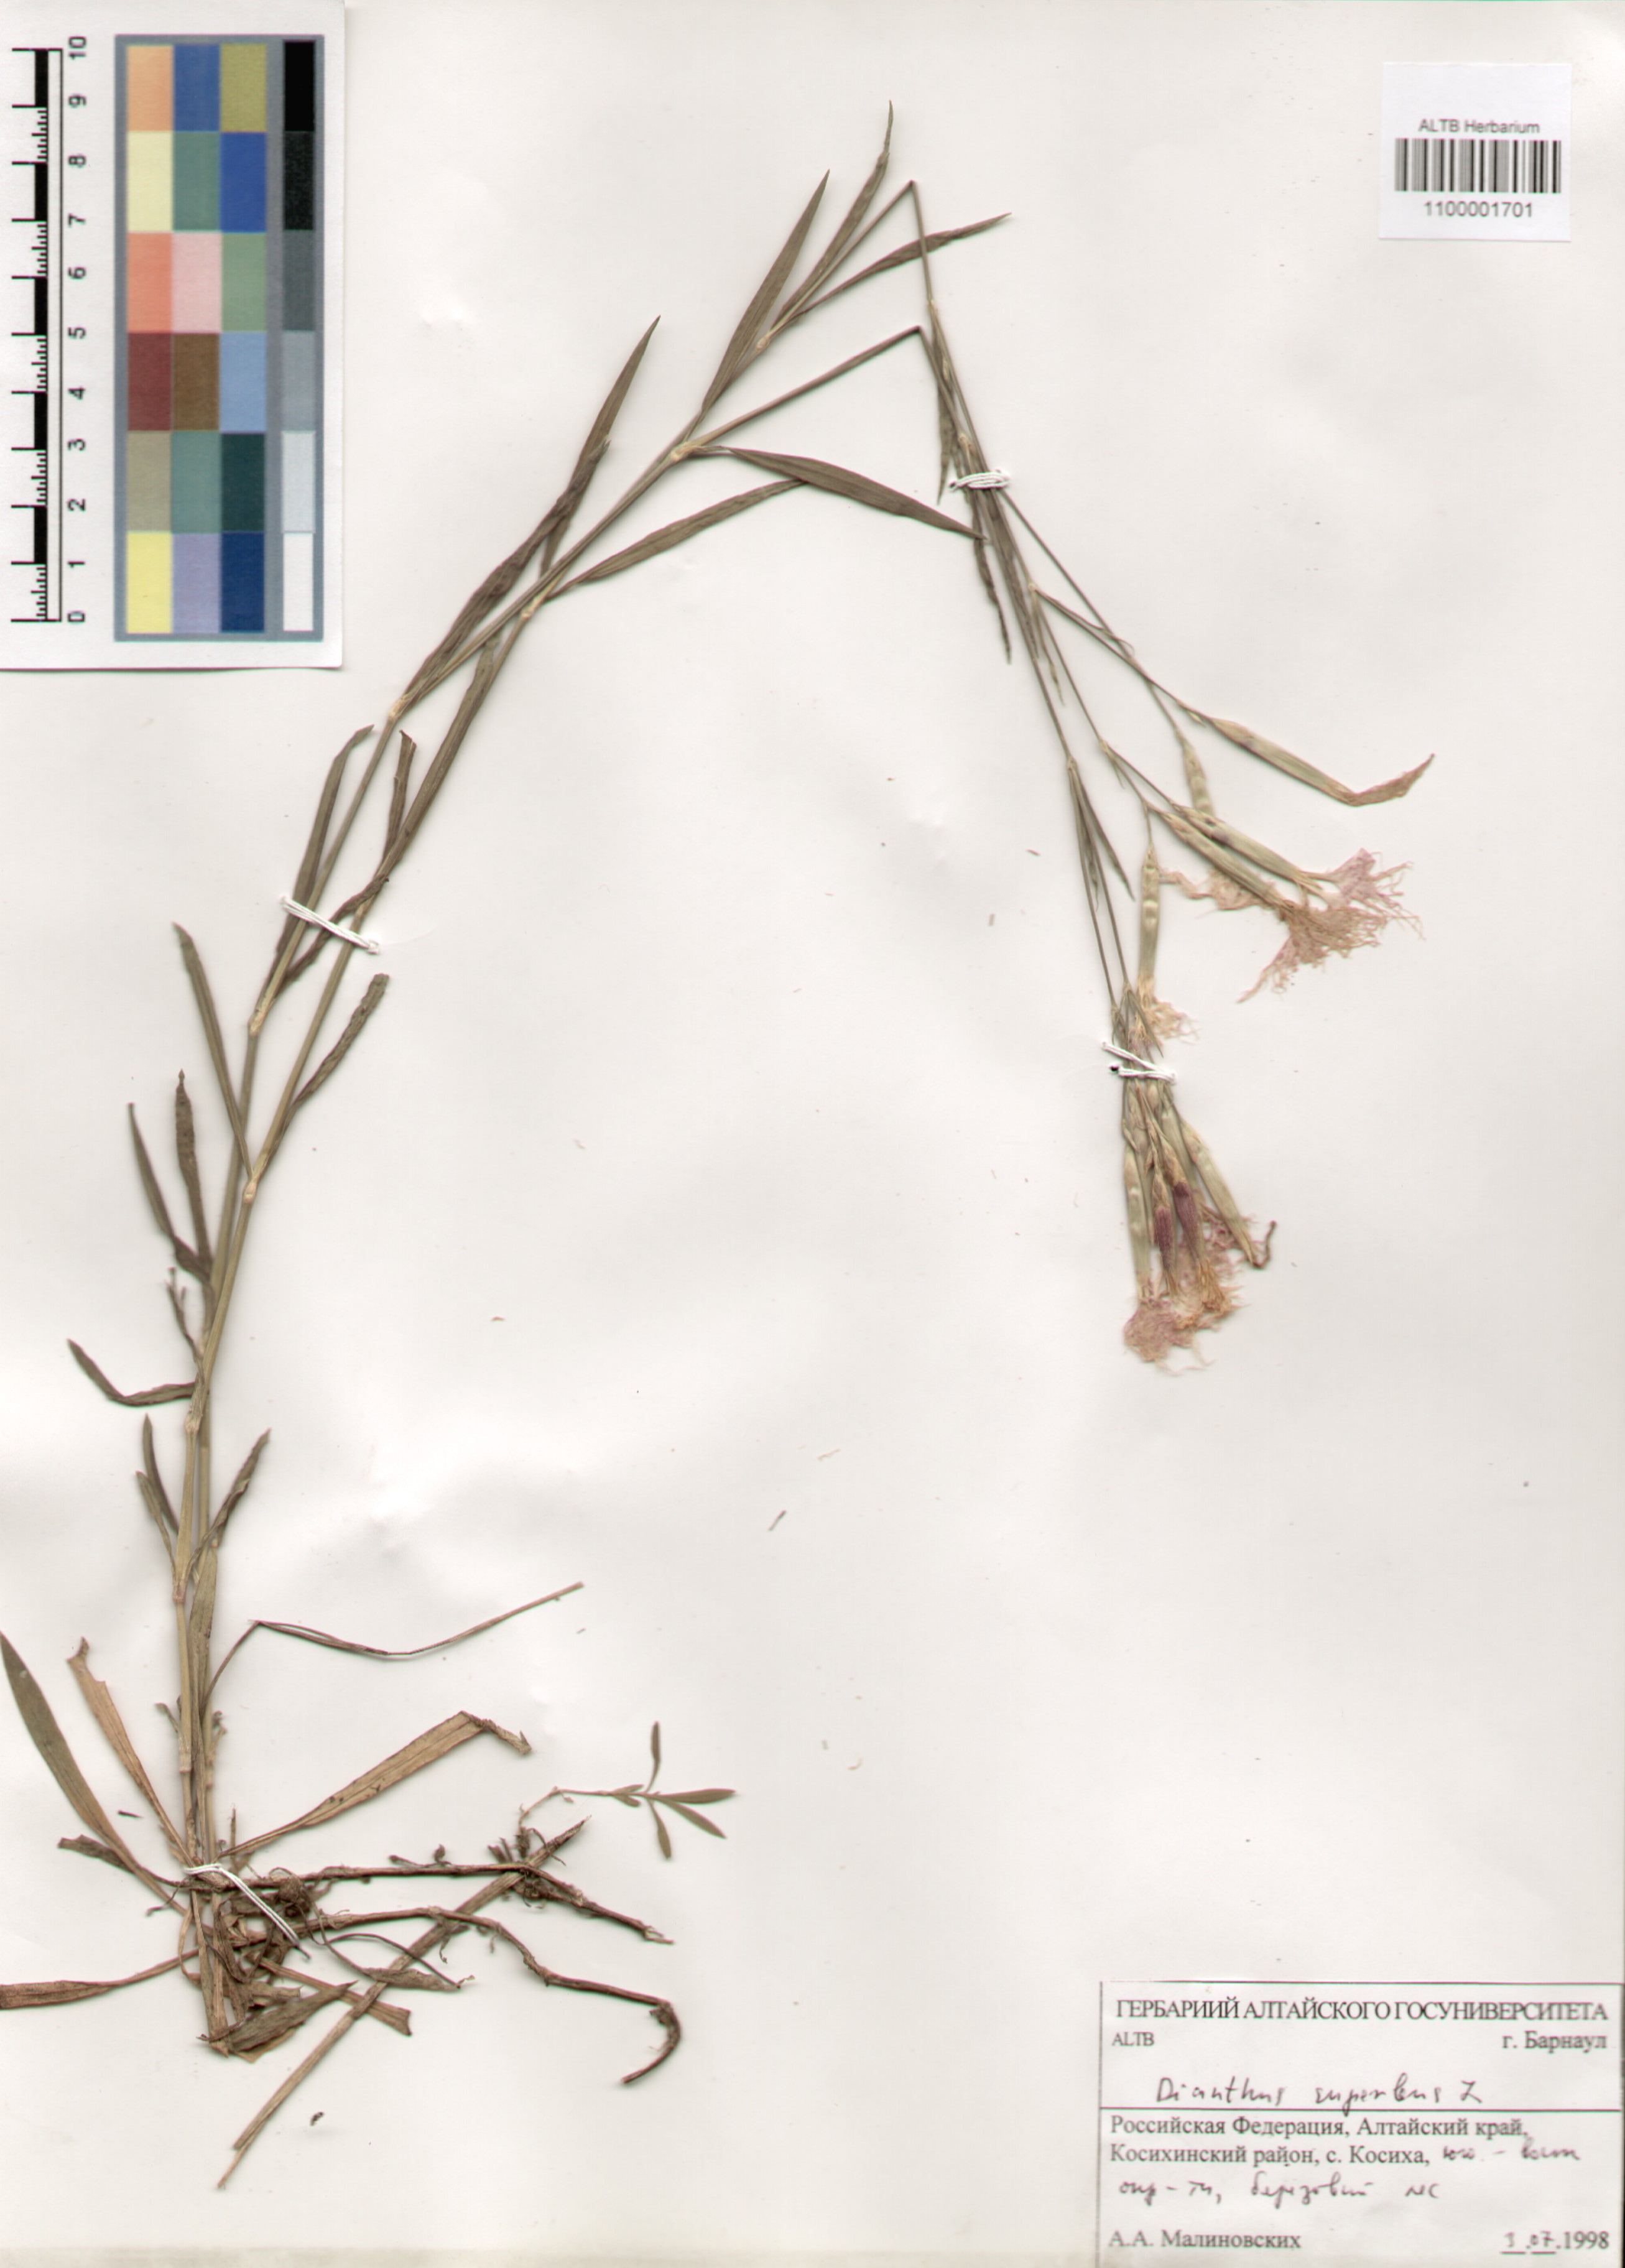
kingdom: Plantae
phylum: Tracheophyta
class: Magnoliopsida
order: Caryophyllales
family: Caryophyllaceae
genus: Dianthus
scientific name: Dianthus superbus
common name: Fringed pink
